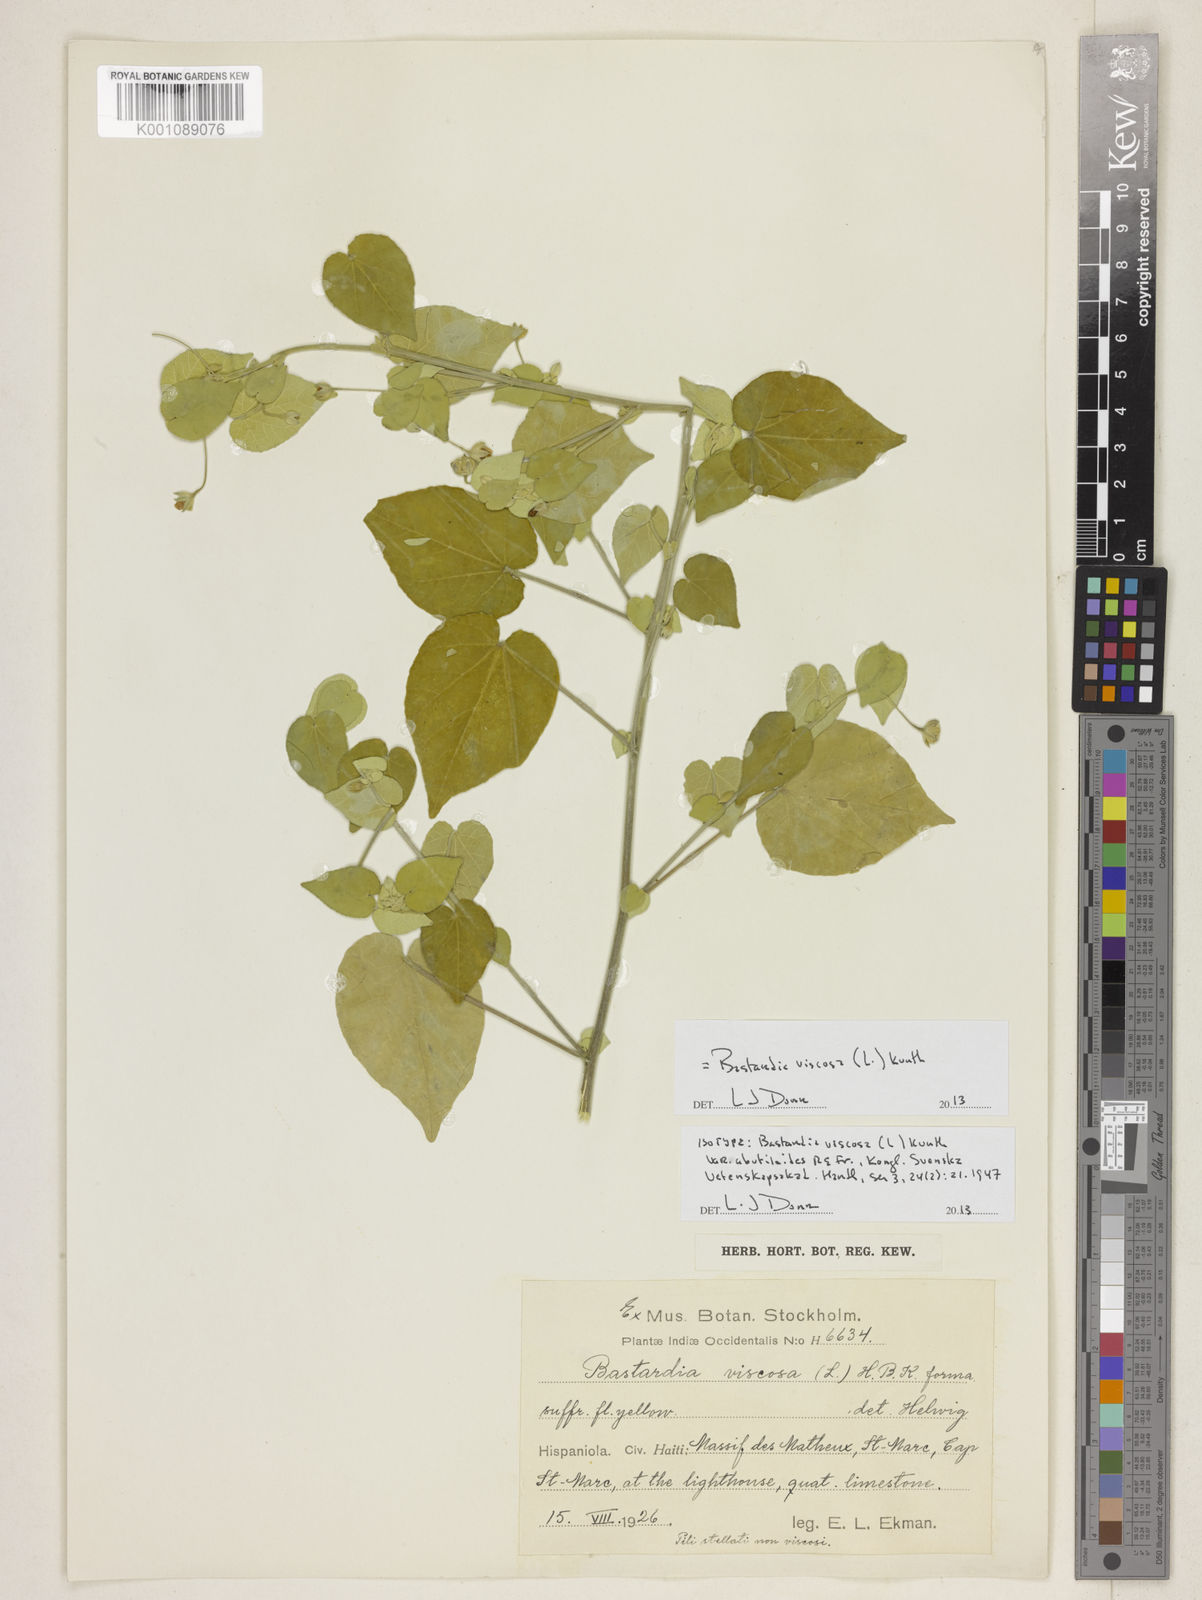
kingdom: Plantae
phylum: Tracheophyta
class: Magnoliopsida
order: Malvales
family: Malvaceae
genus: Abutilon
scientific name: Abutilon viscosum
